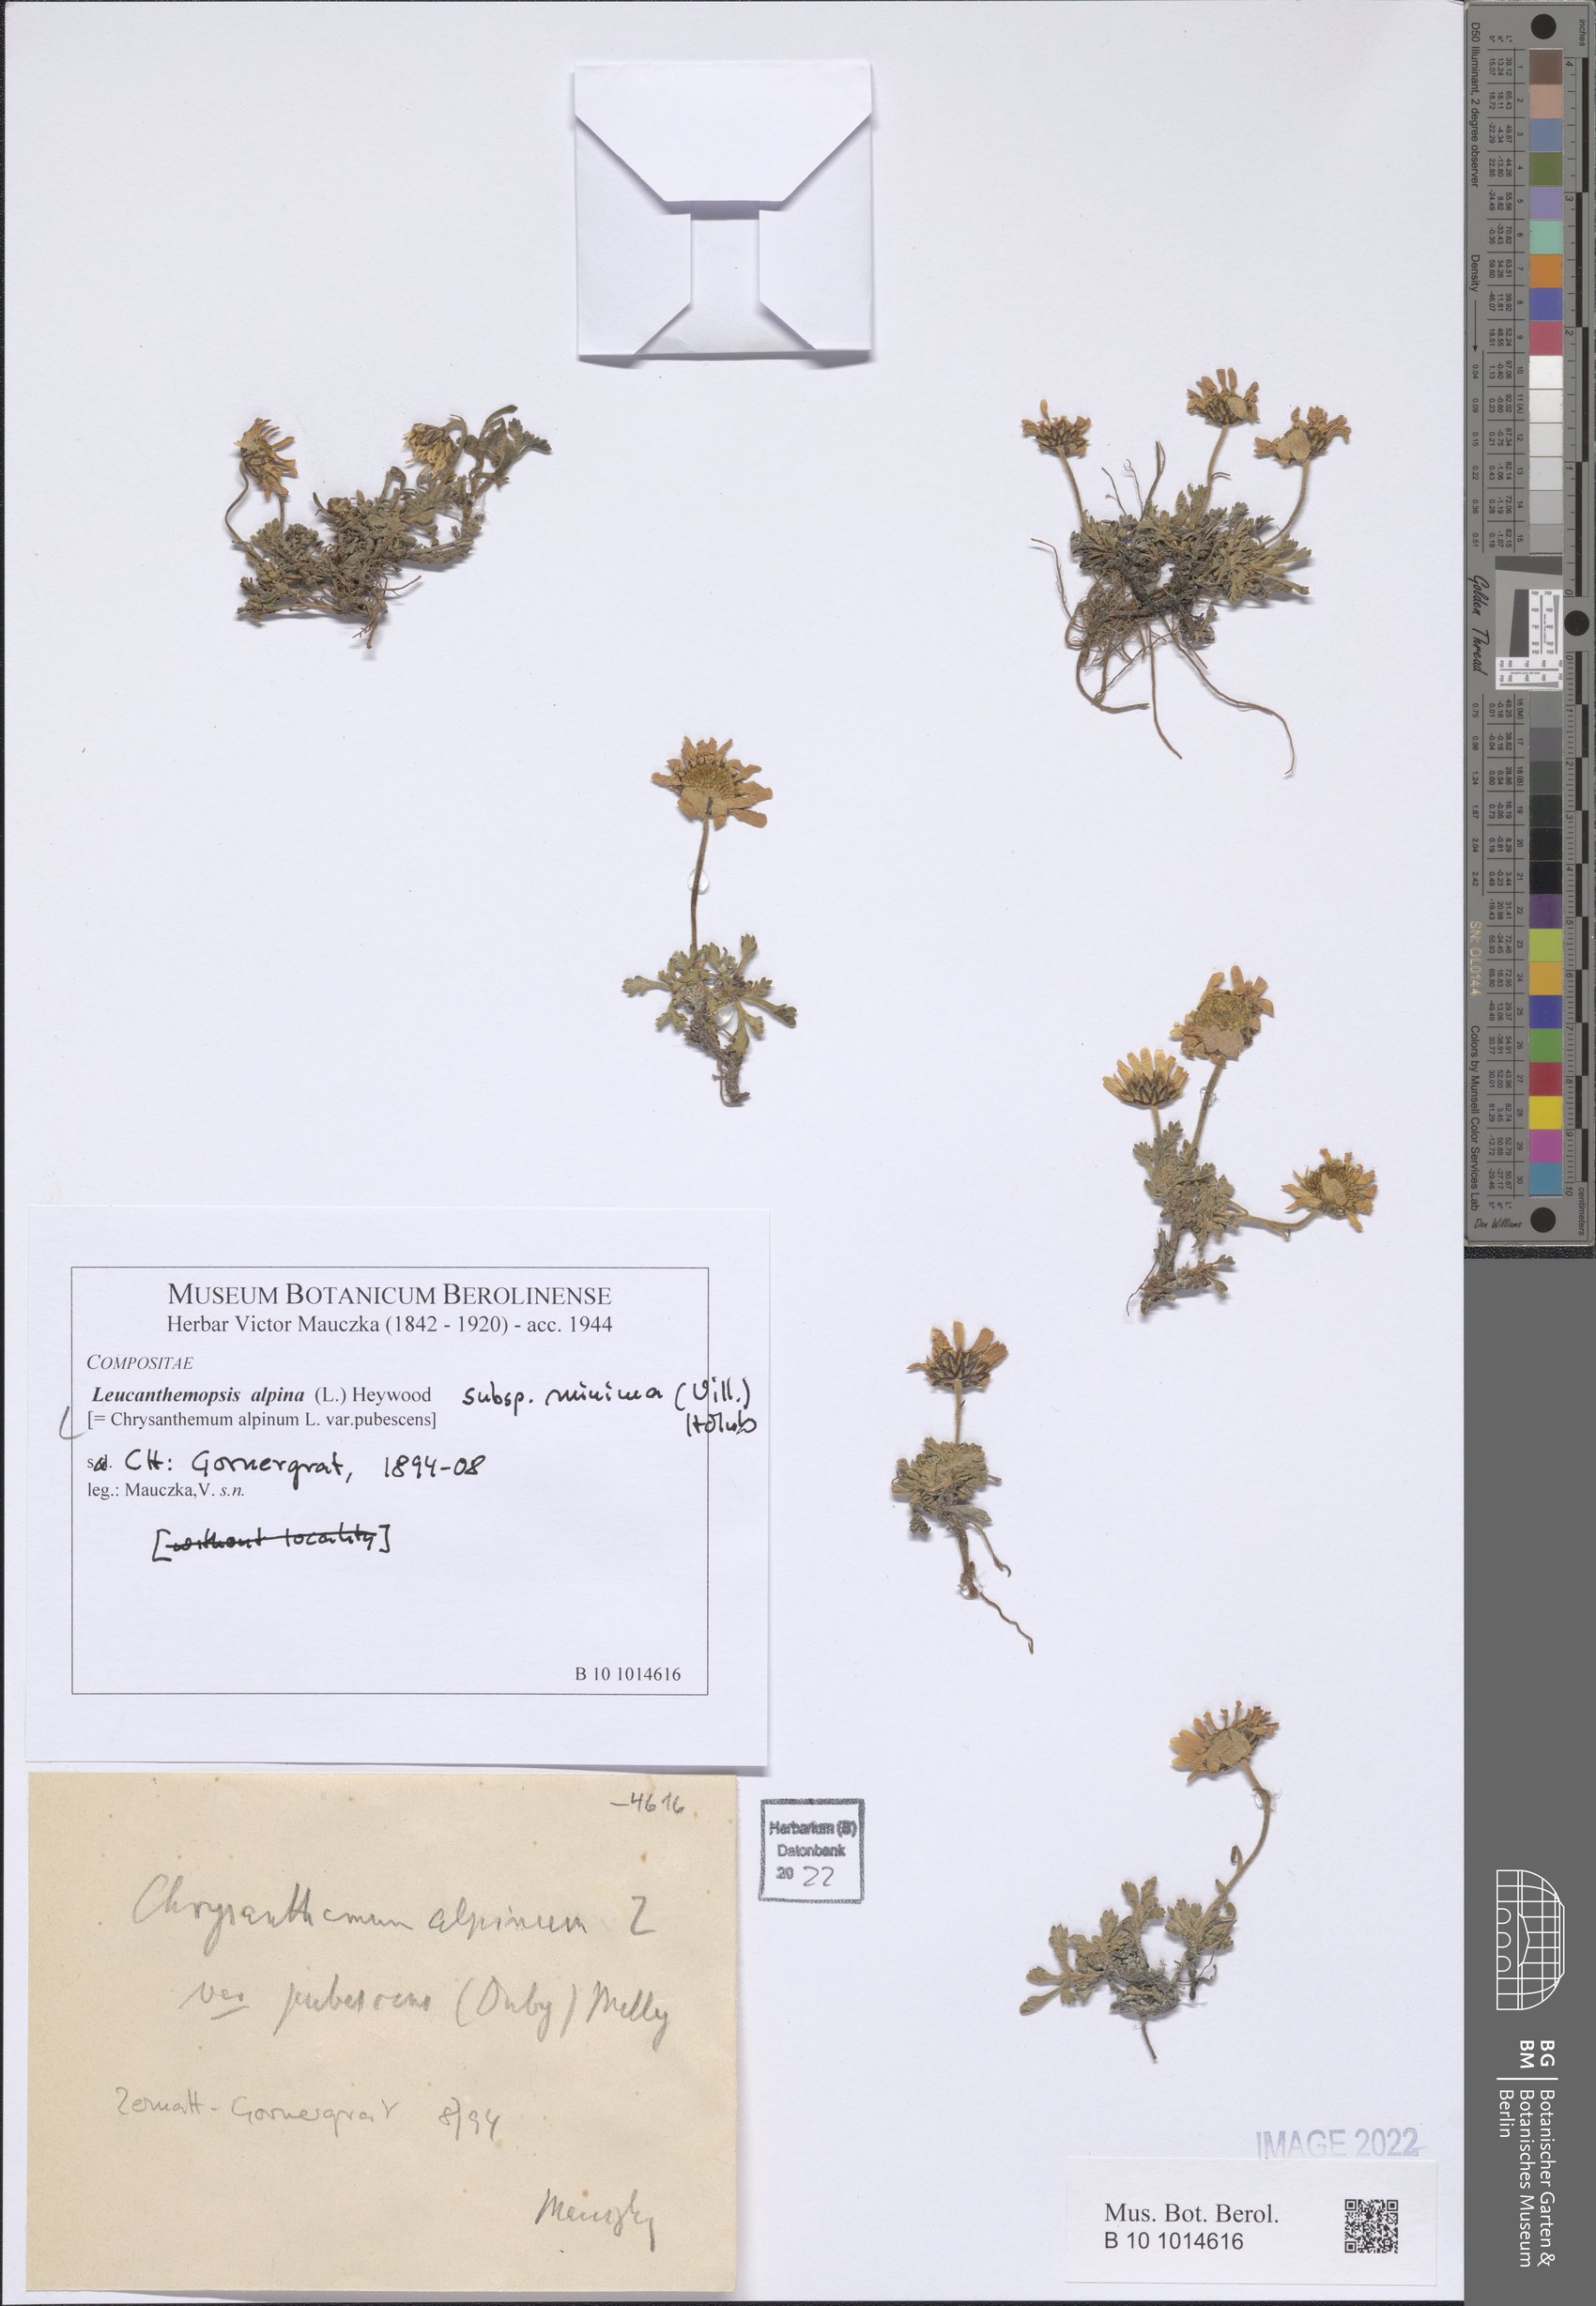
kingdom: Plantae
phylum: Tracheophyta
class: Magnoliopsida
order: Asterales
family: Asteraceae
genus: Leucanthemopsis
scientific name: Leucanthemopsis alpina
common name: Alpine moon daisy
